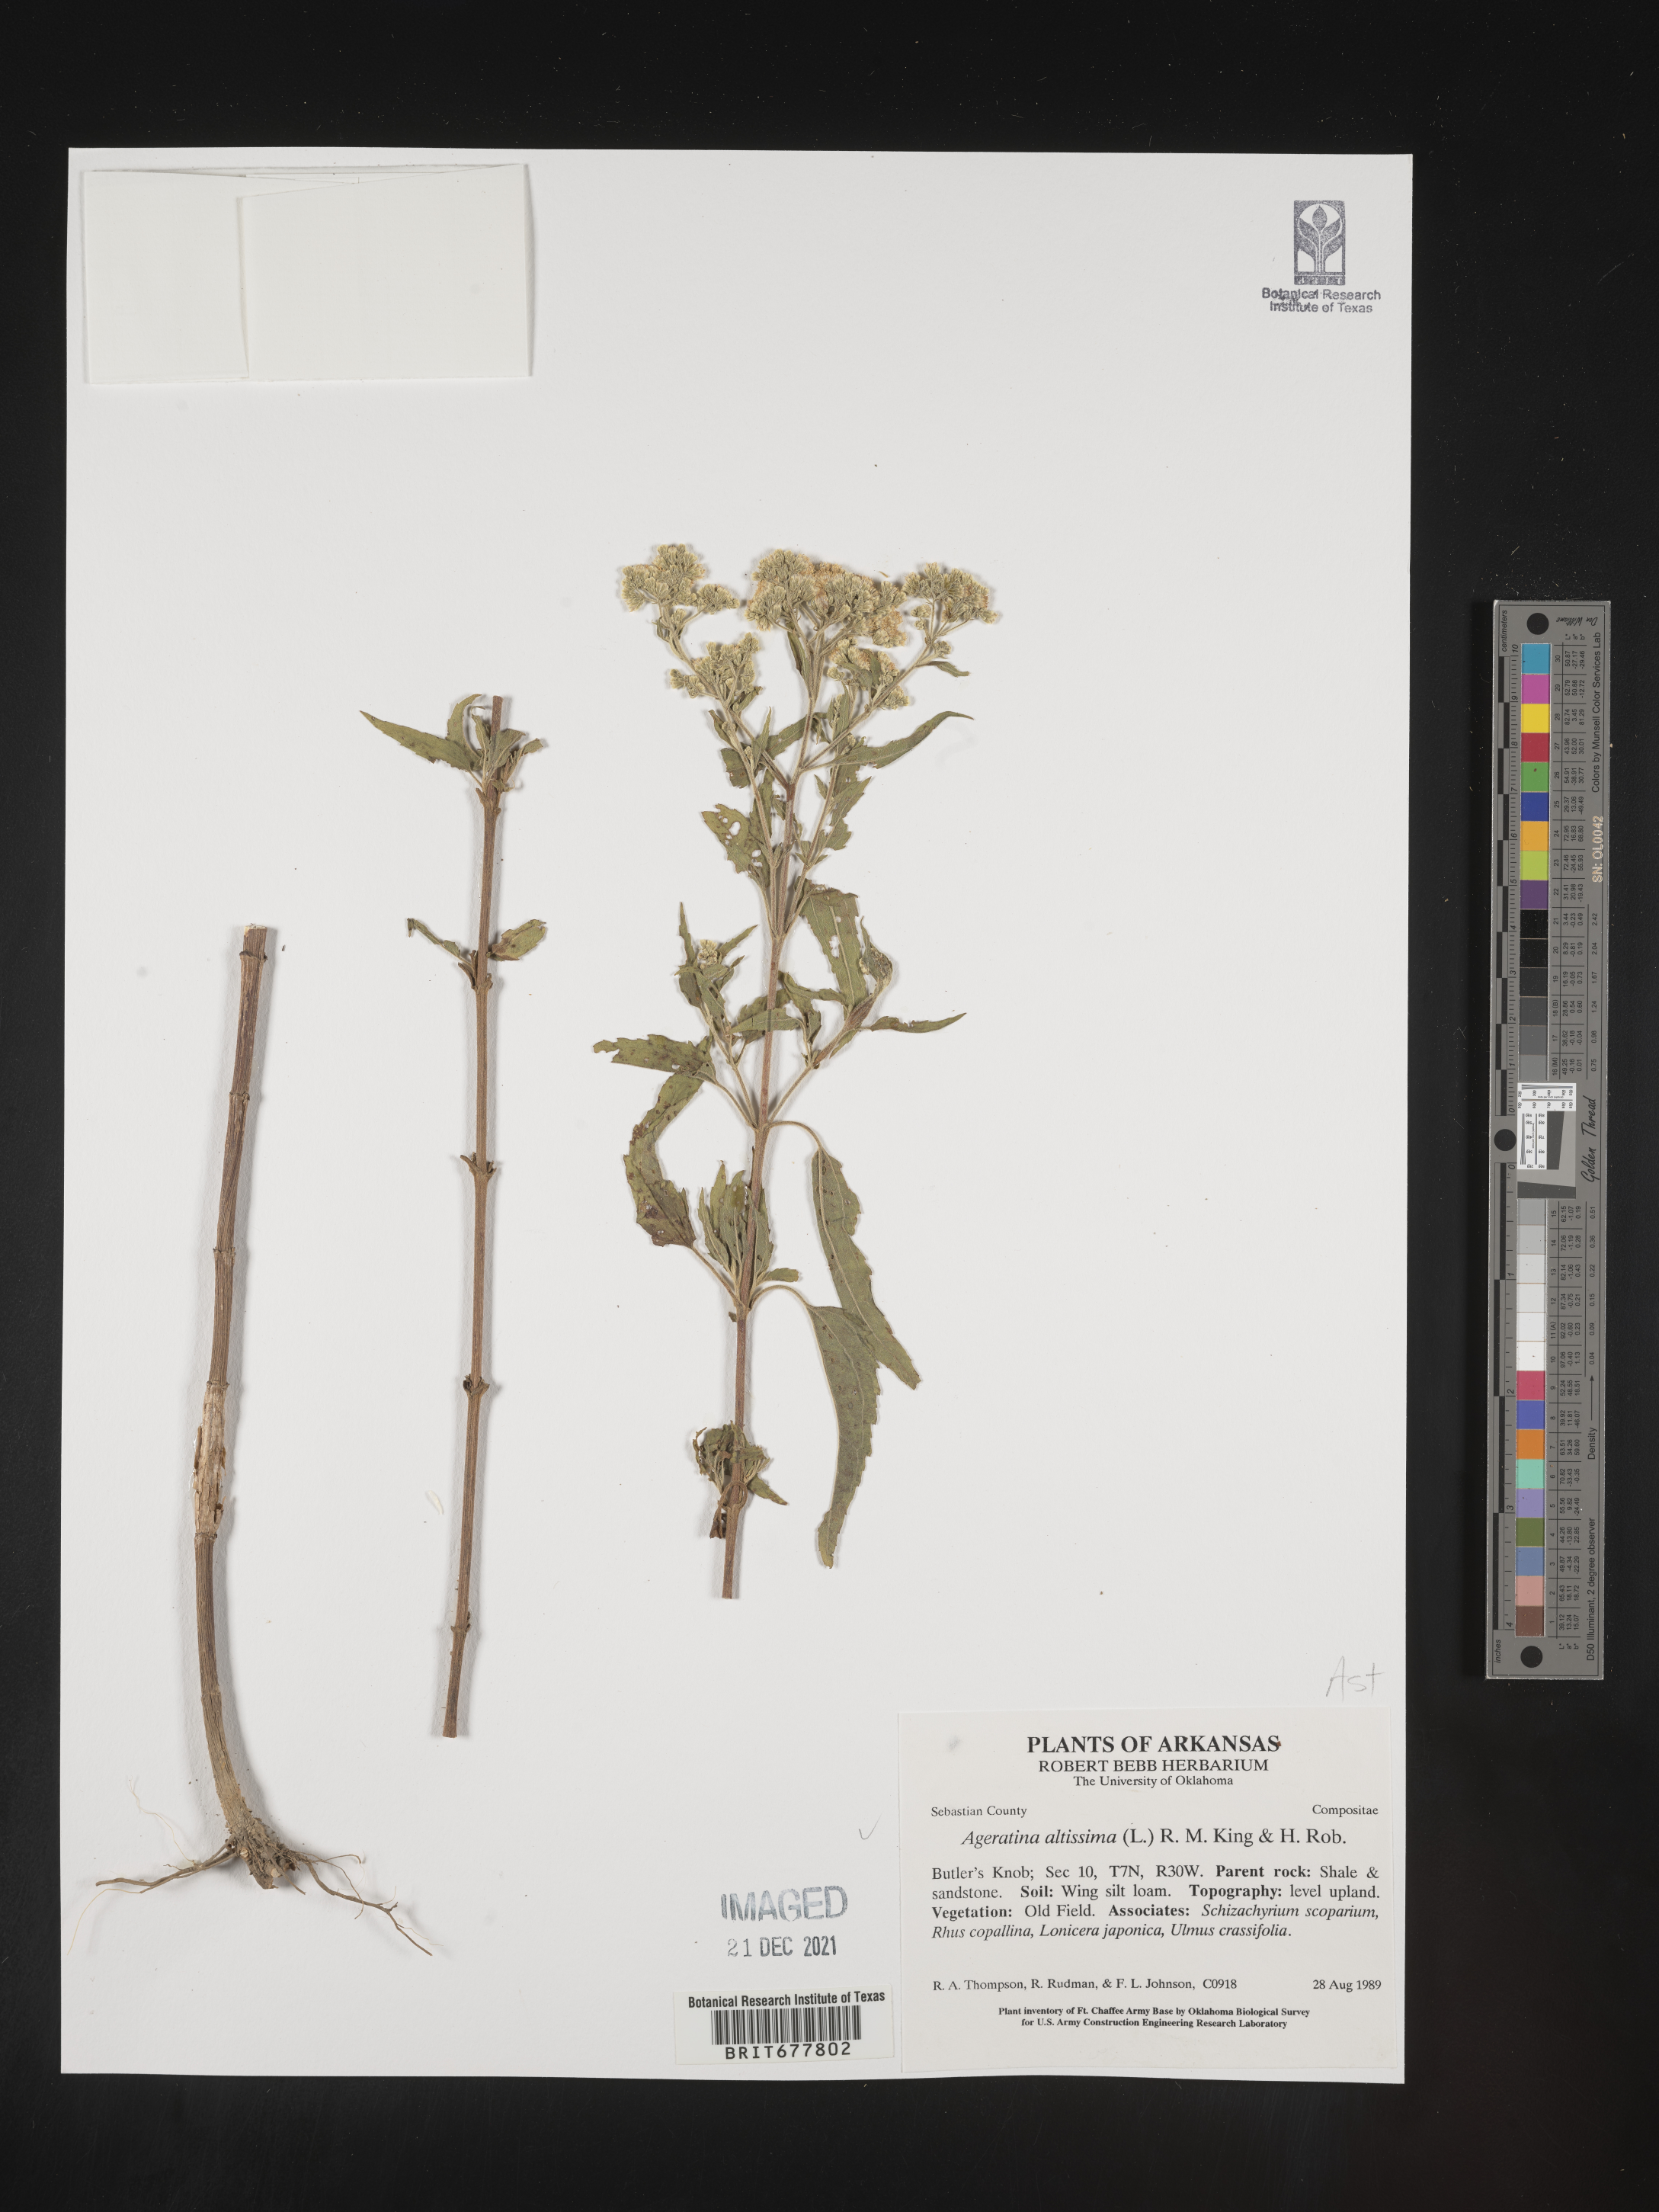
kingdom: Plantae
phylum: Tracheophyta
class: Magnoliopsida
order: Asterales
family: Asteraceae
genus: Ageratina
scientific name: Ageratina altissima
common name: White snakeroot
